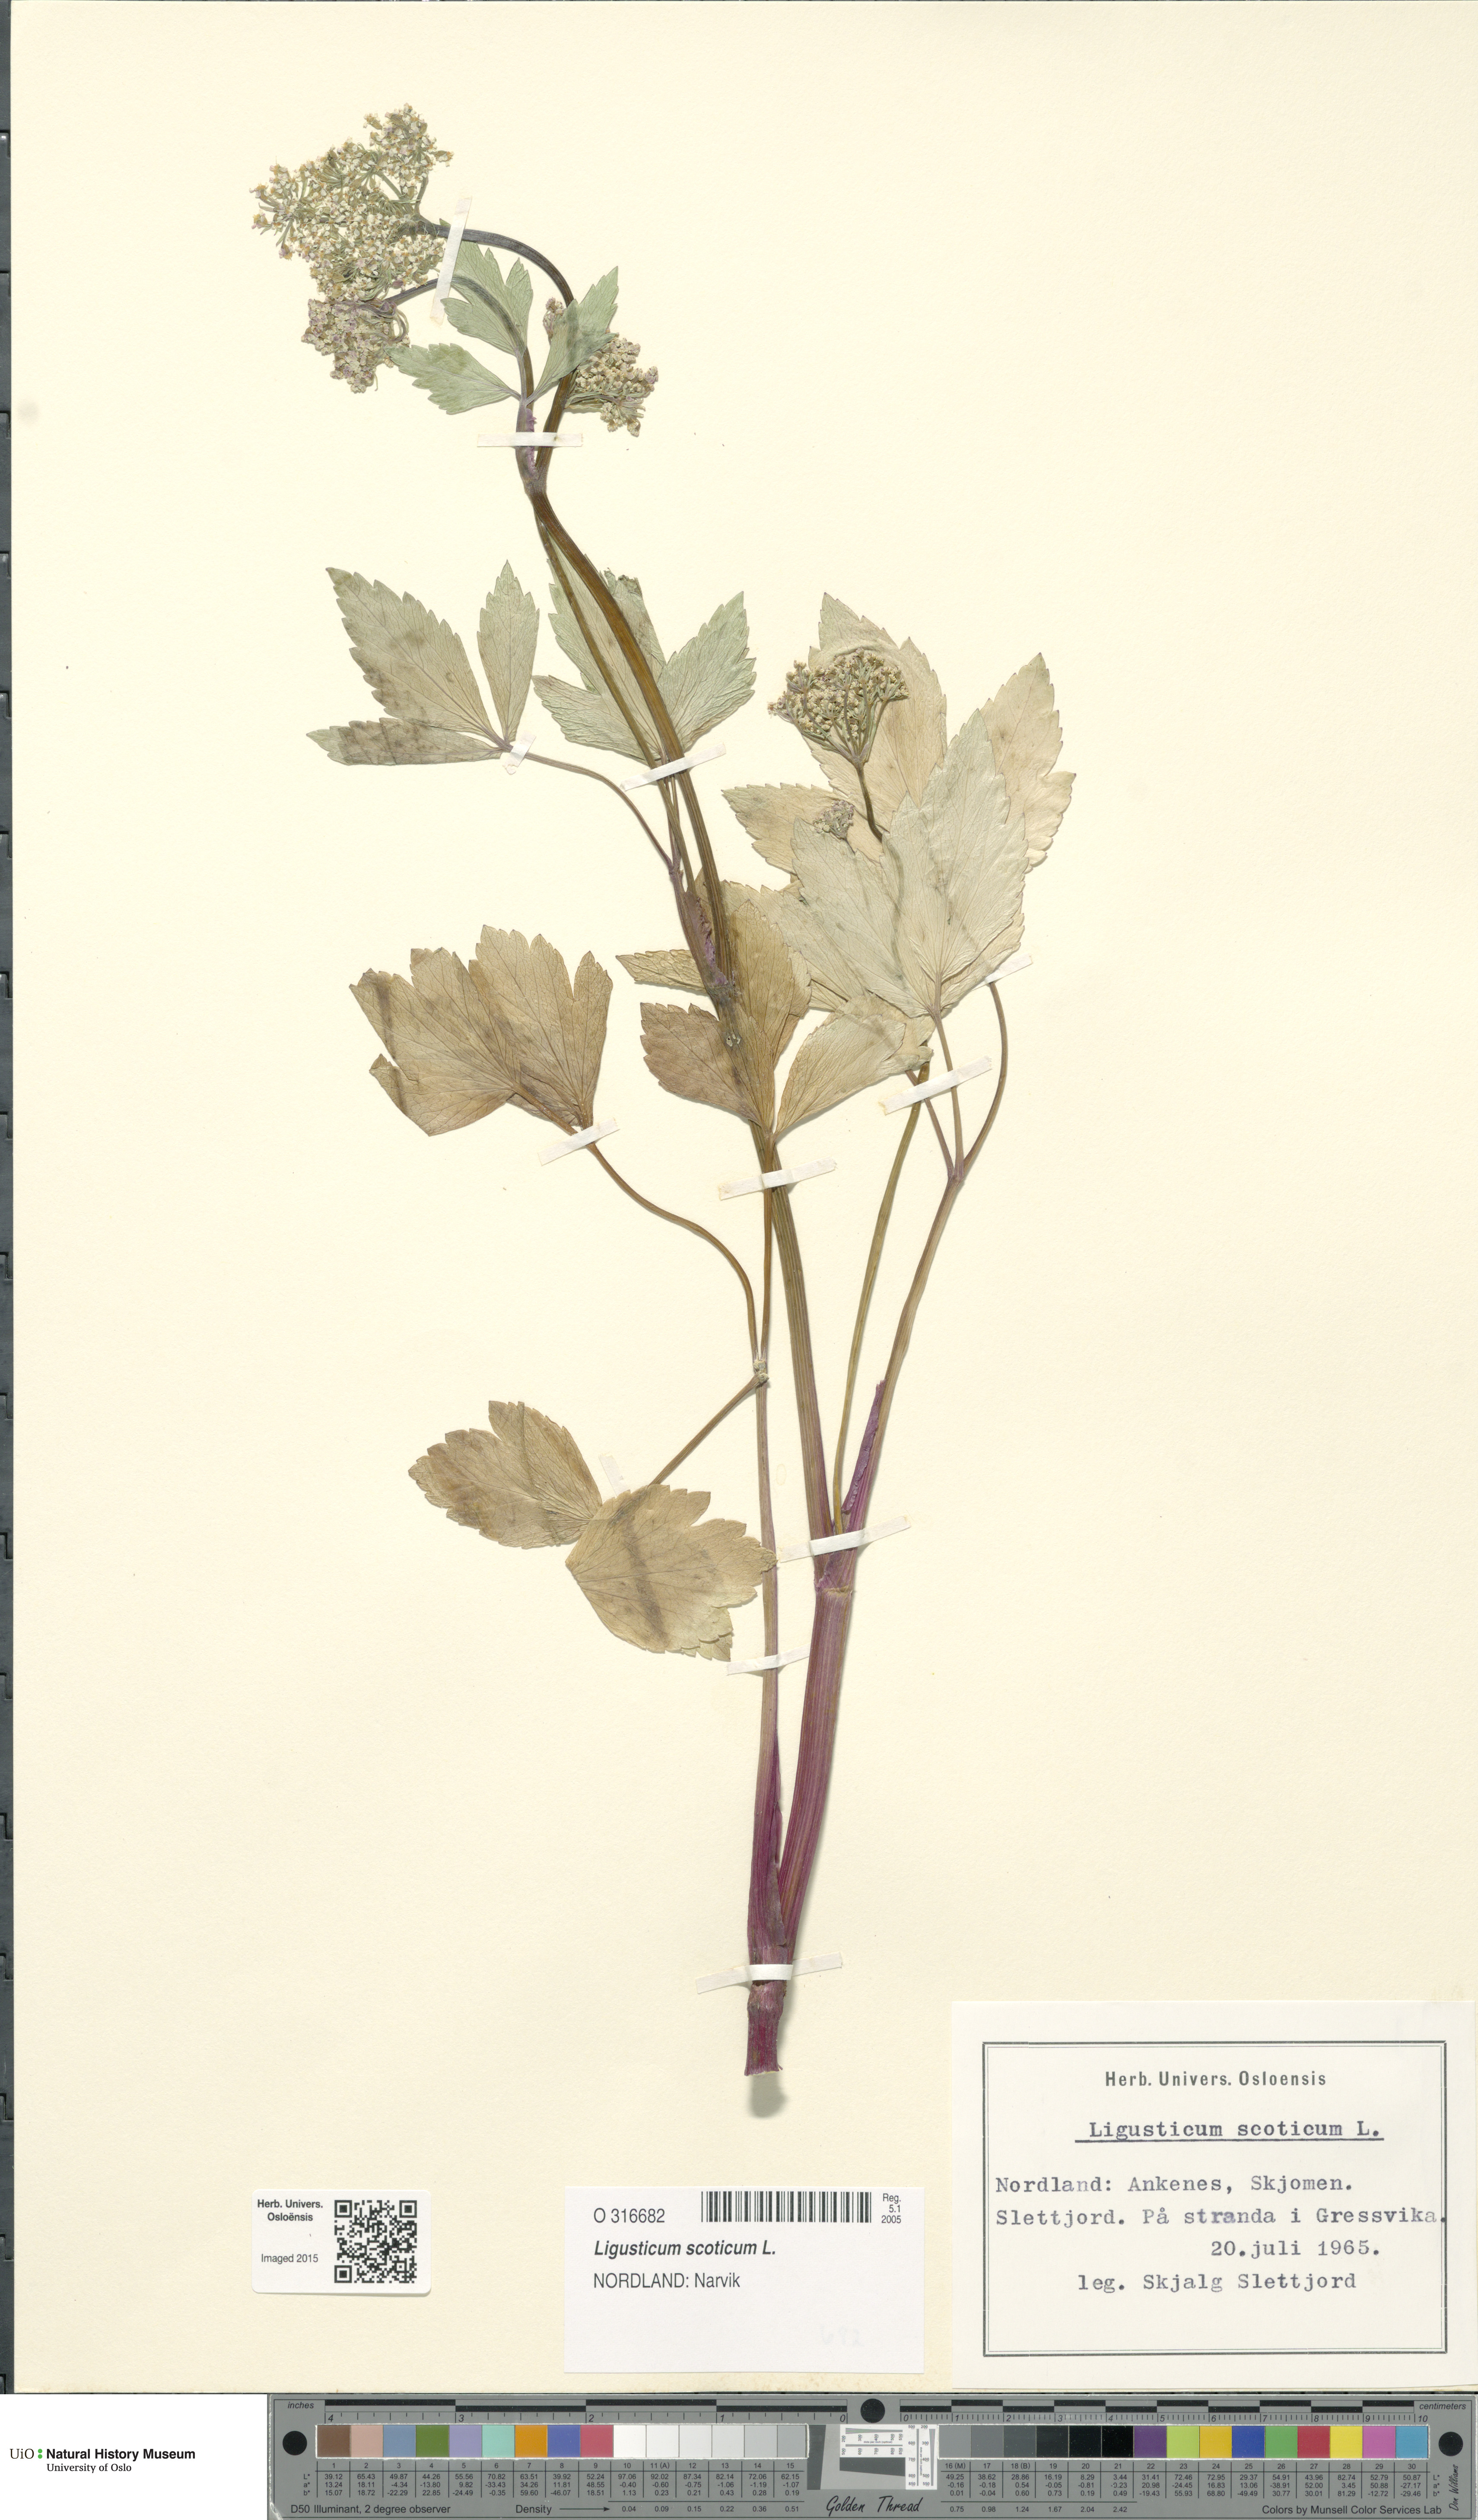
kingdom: Plantae
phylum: Tracheophyta
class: Magnoliopsida
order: Apiales
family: Apiaceae
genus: Ligusticum
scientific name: Ligusticum scothicum
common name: Beach lovage
